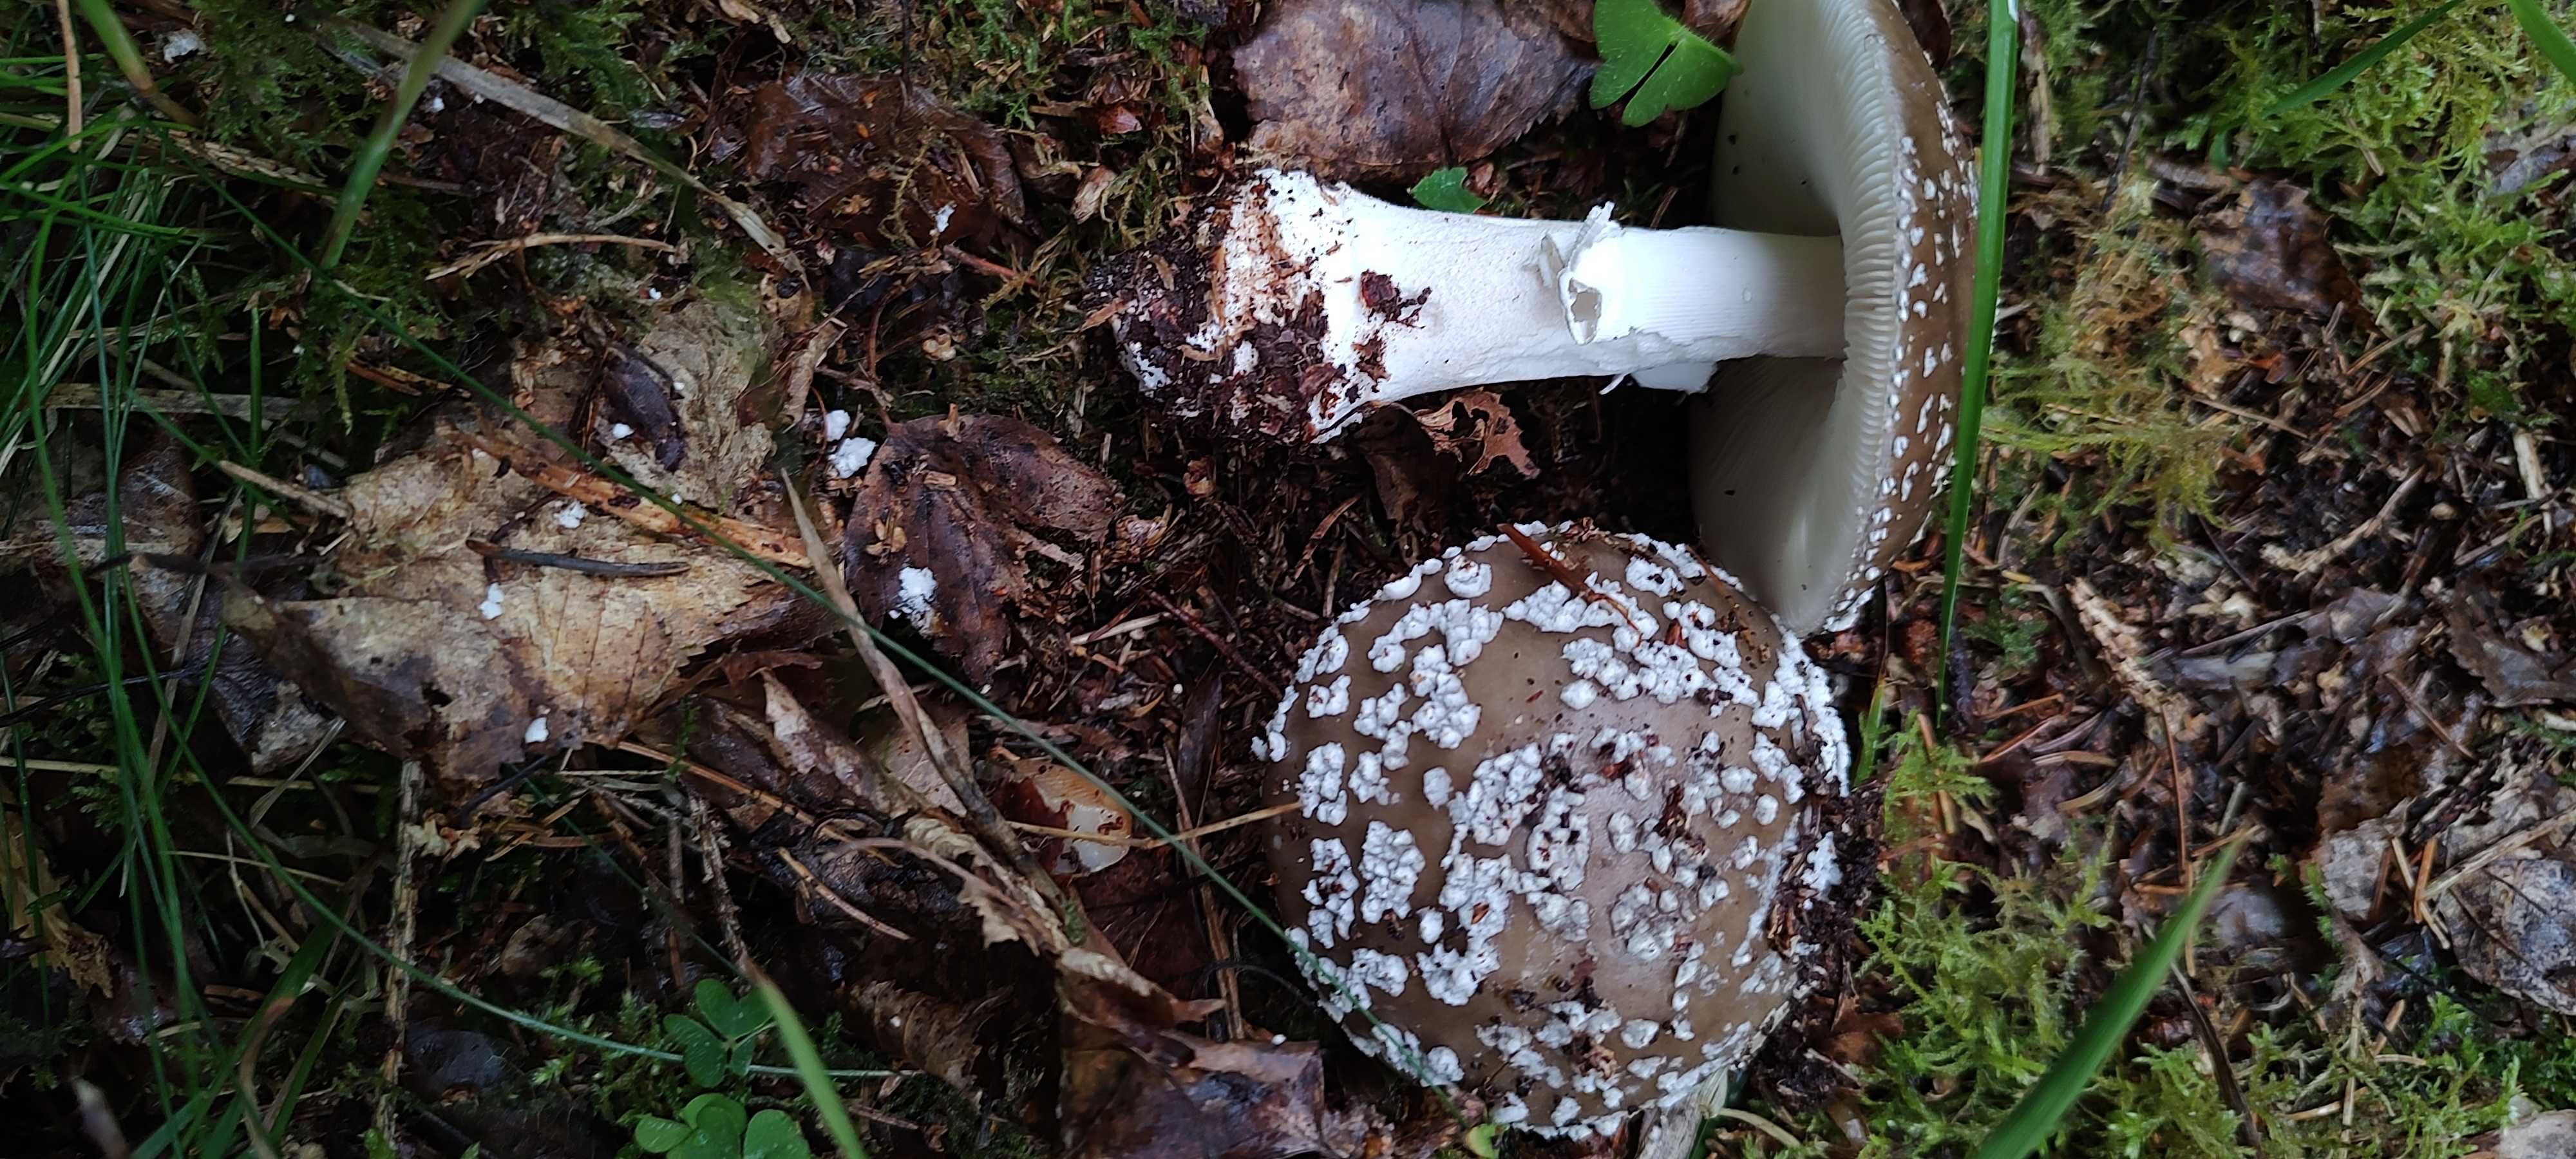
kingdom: Fungi
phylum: Basidiomycota
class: Agaricomycetes
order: Agaricales
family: Amanitaceae
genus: Amanita
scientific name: Amanita
